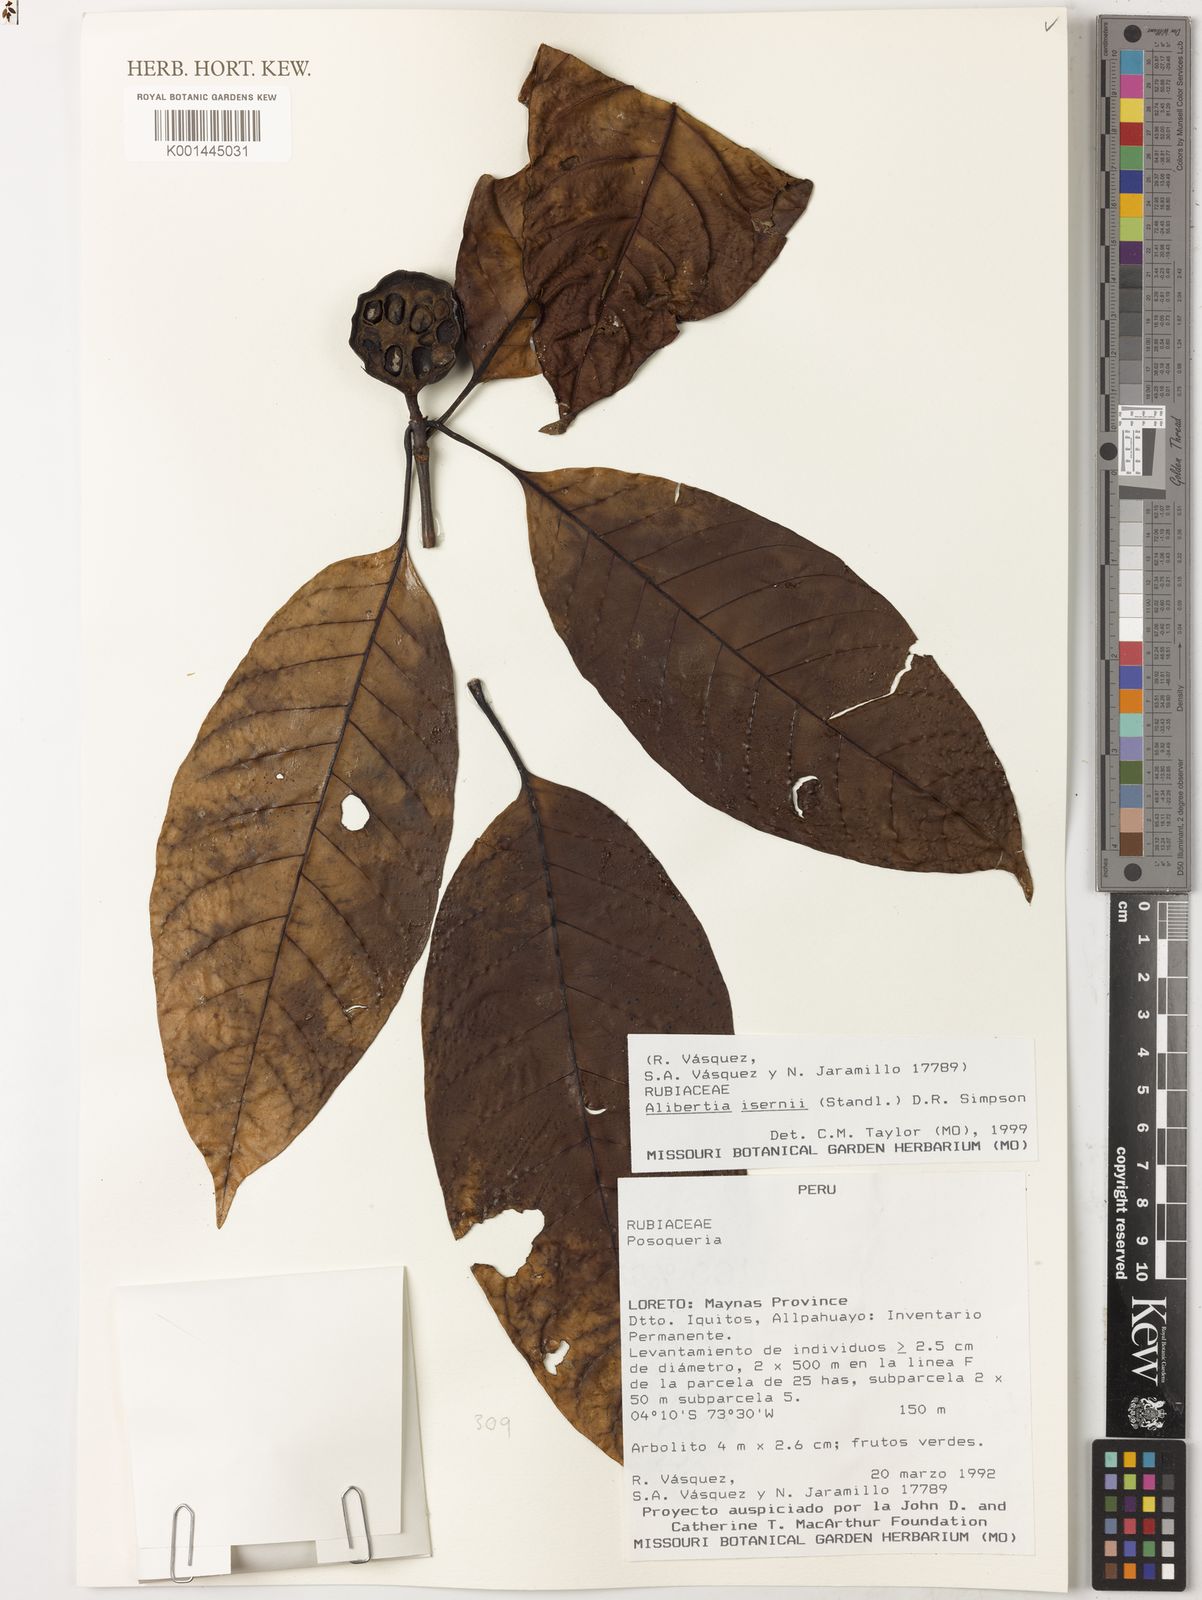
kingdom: Plantae
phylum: Tracheophyta
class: Magnoliopsida
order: Gentianales
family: Rubiaceae
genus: Agouticarpa
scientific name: Agouticarpa isernii
